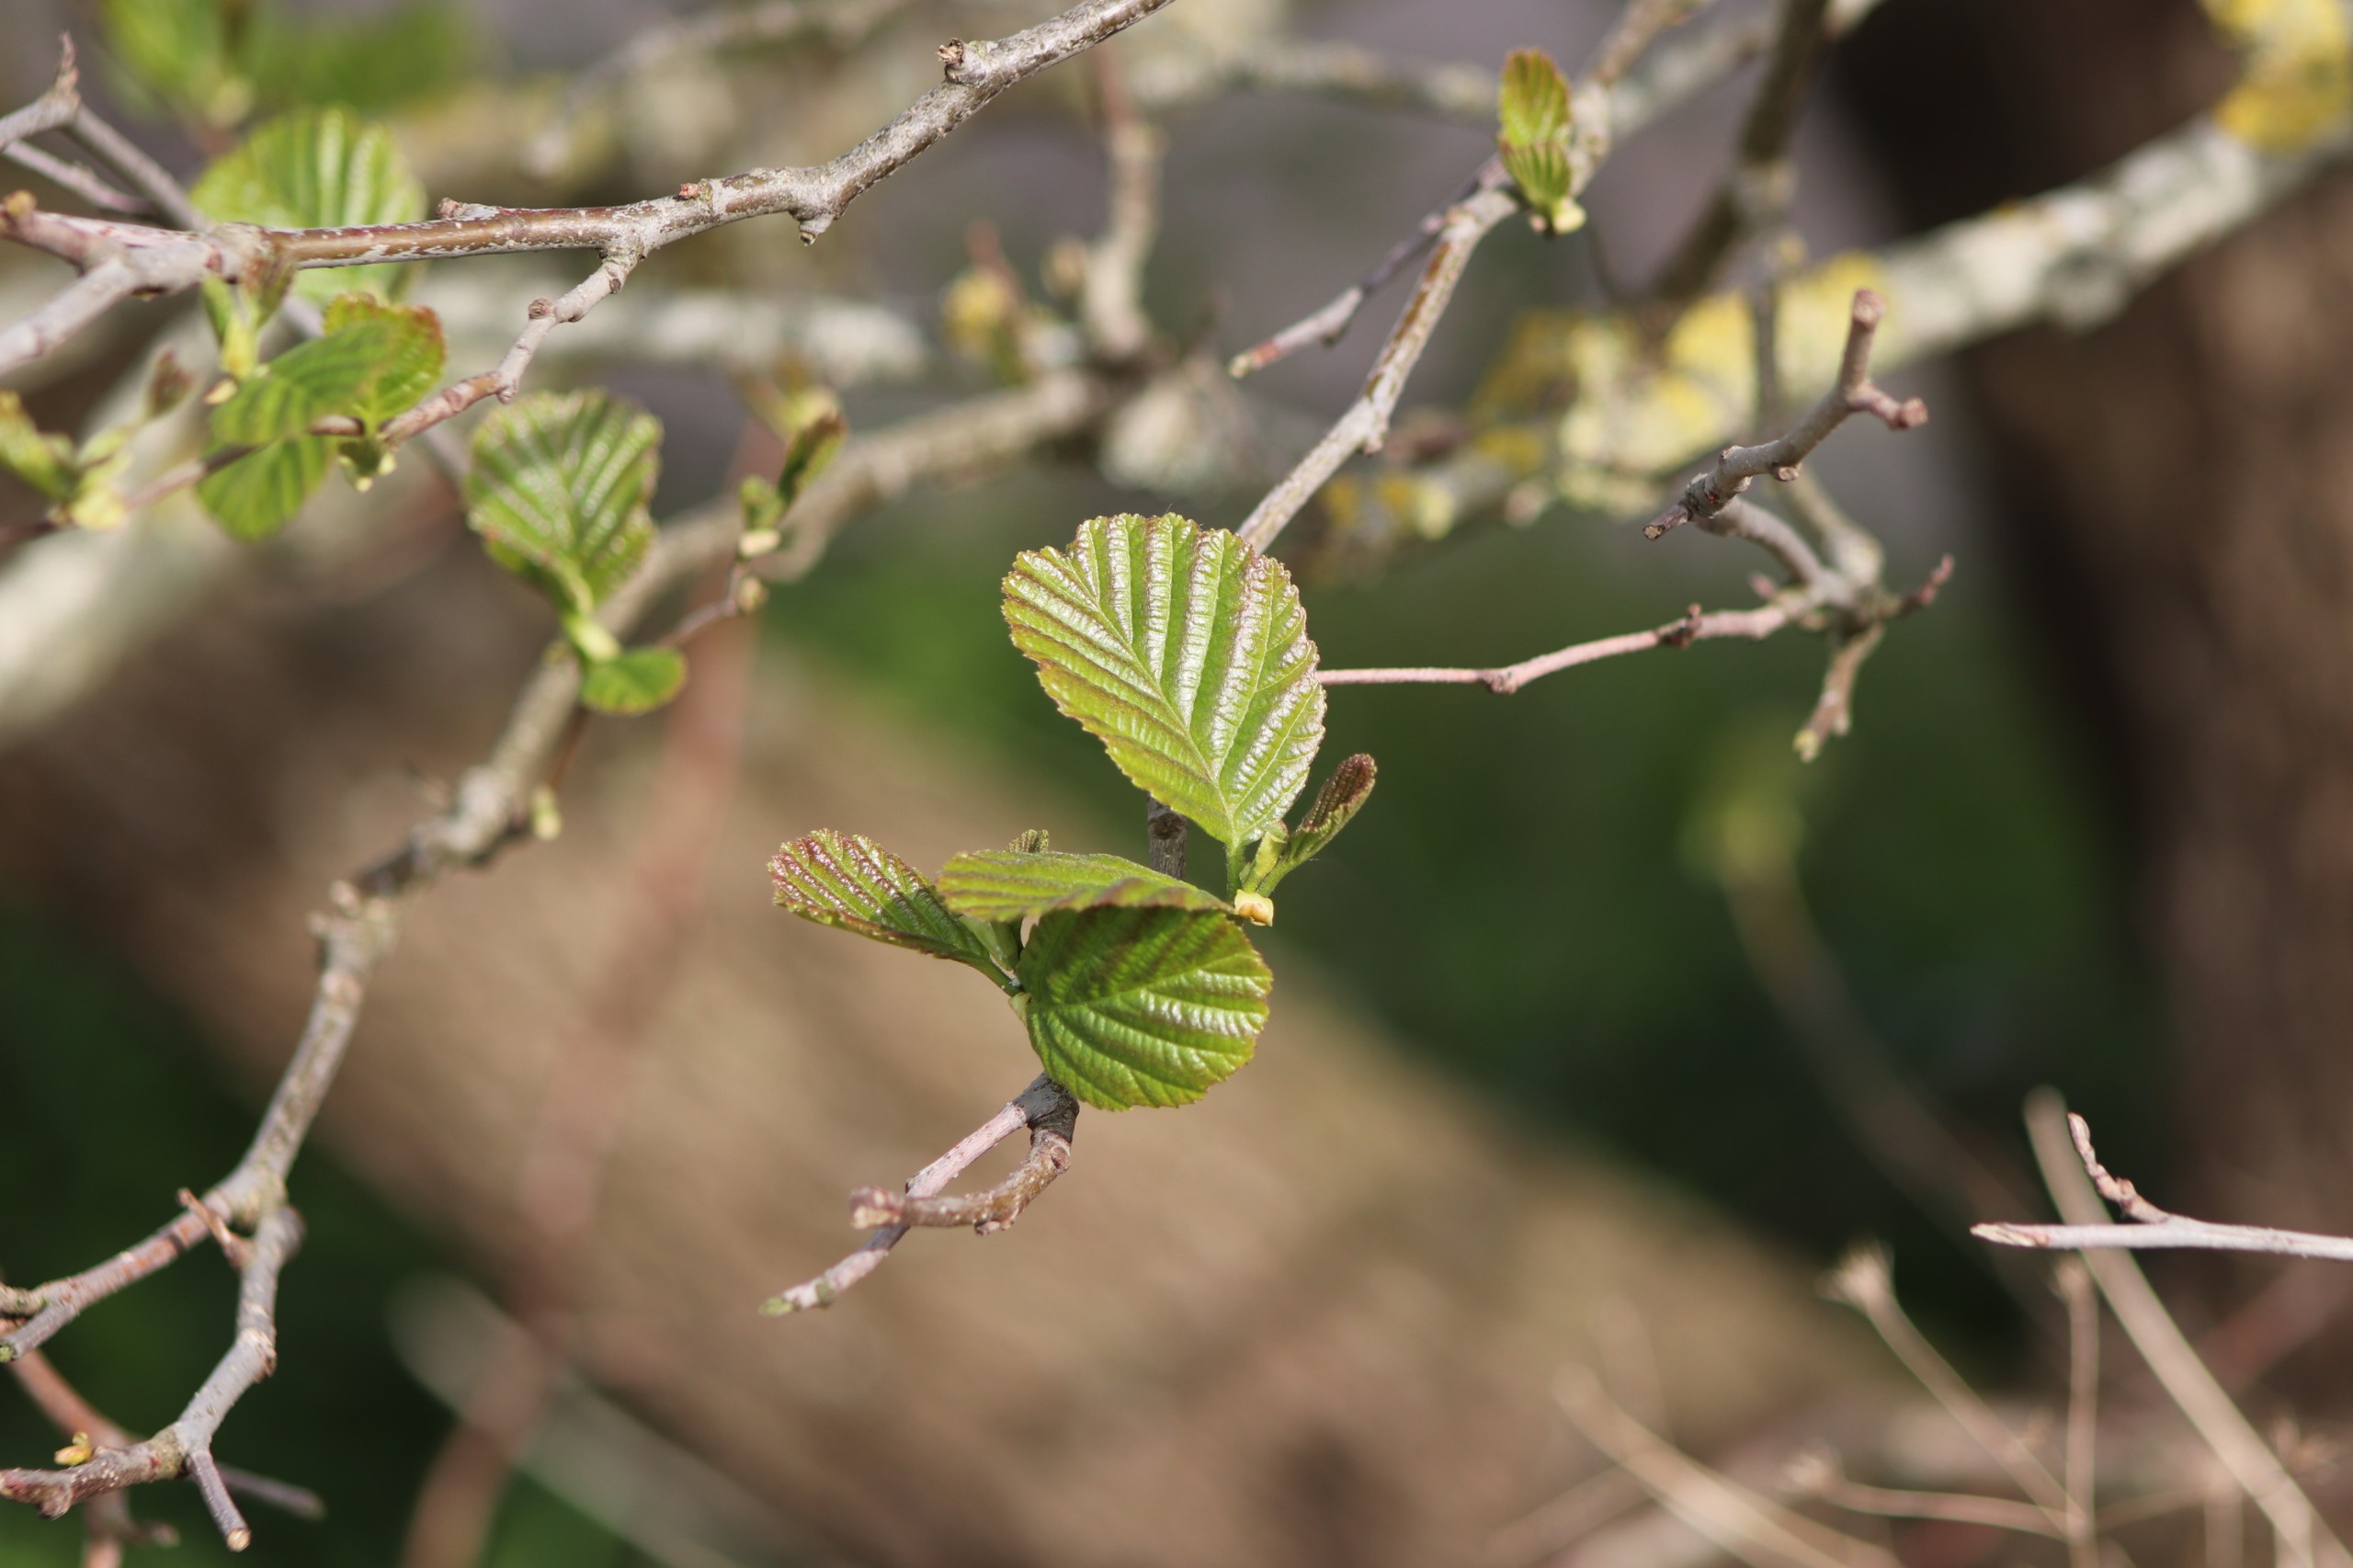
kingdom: Plantae
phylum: Tracheophyta
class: Magnoliopsida
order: Fagales
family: Betulaceae
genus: Alnus
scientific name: Alnus glutinosa
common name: Rød-el
